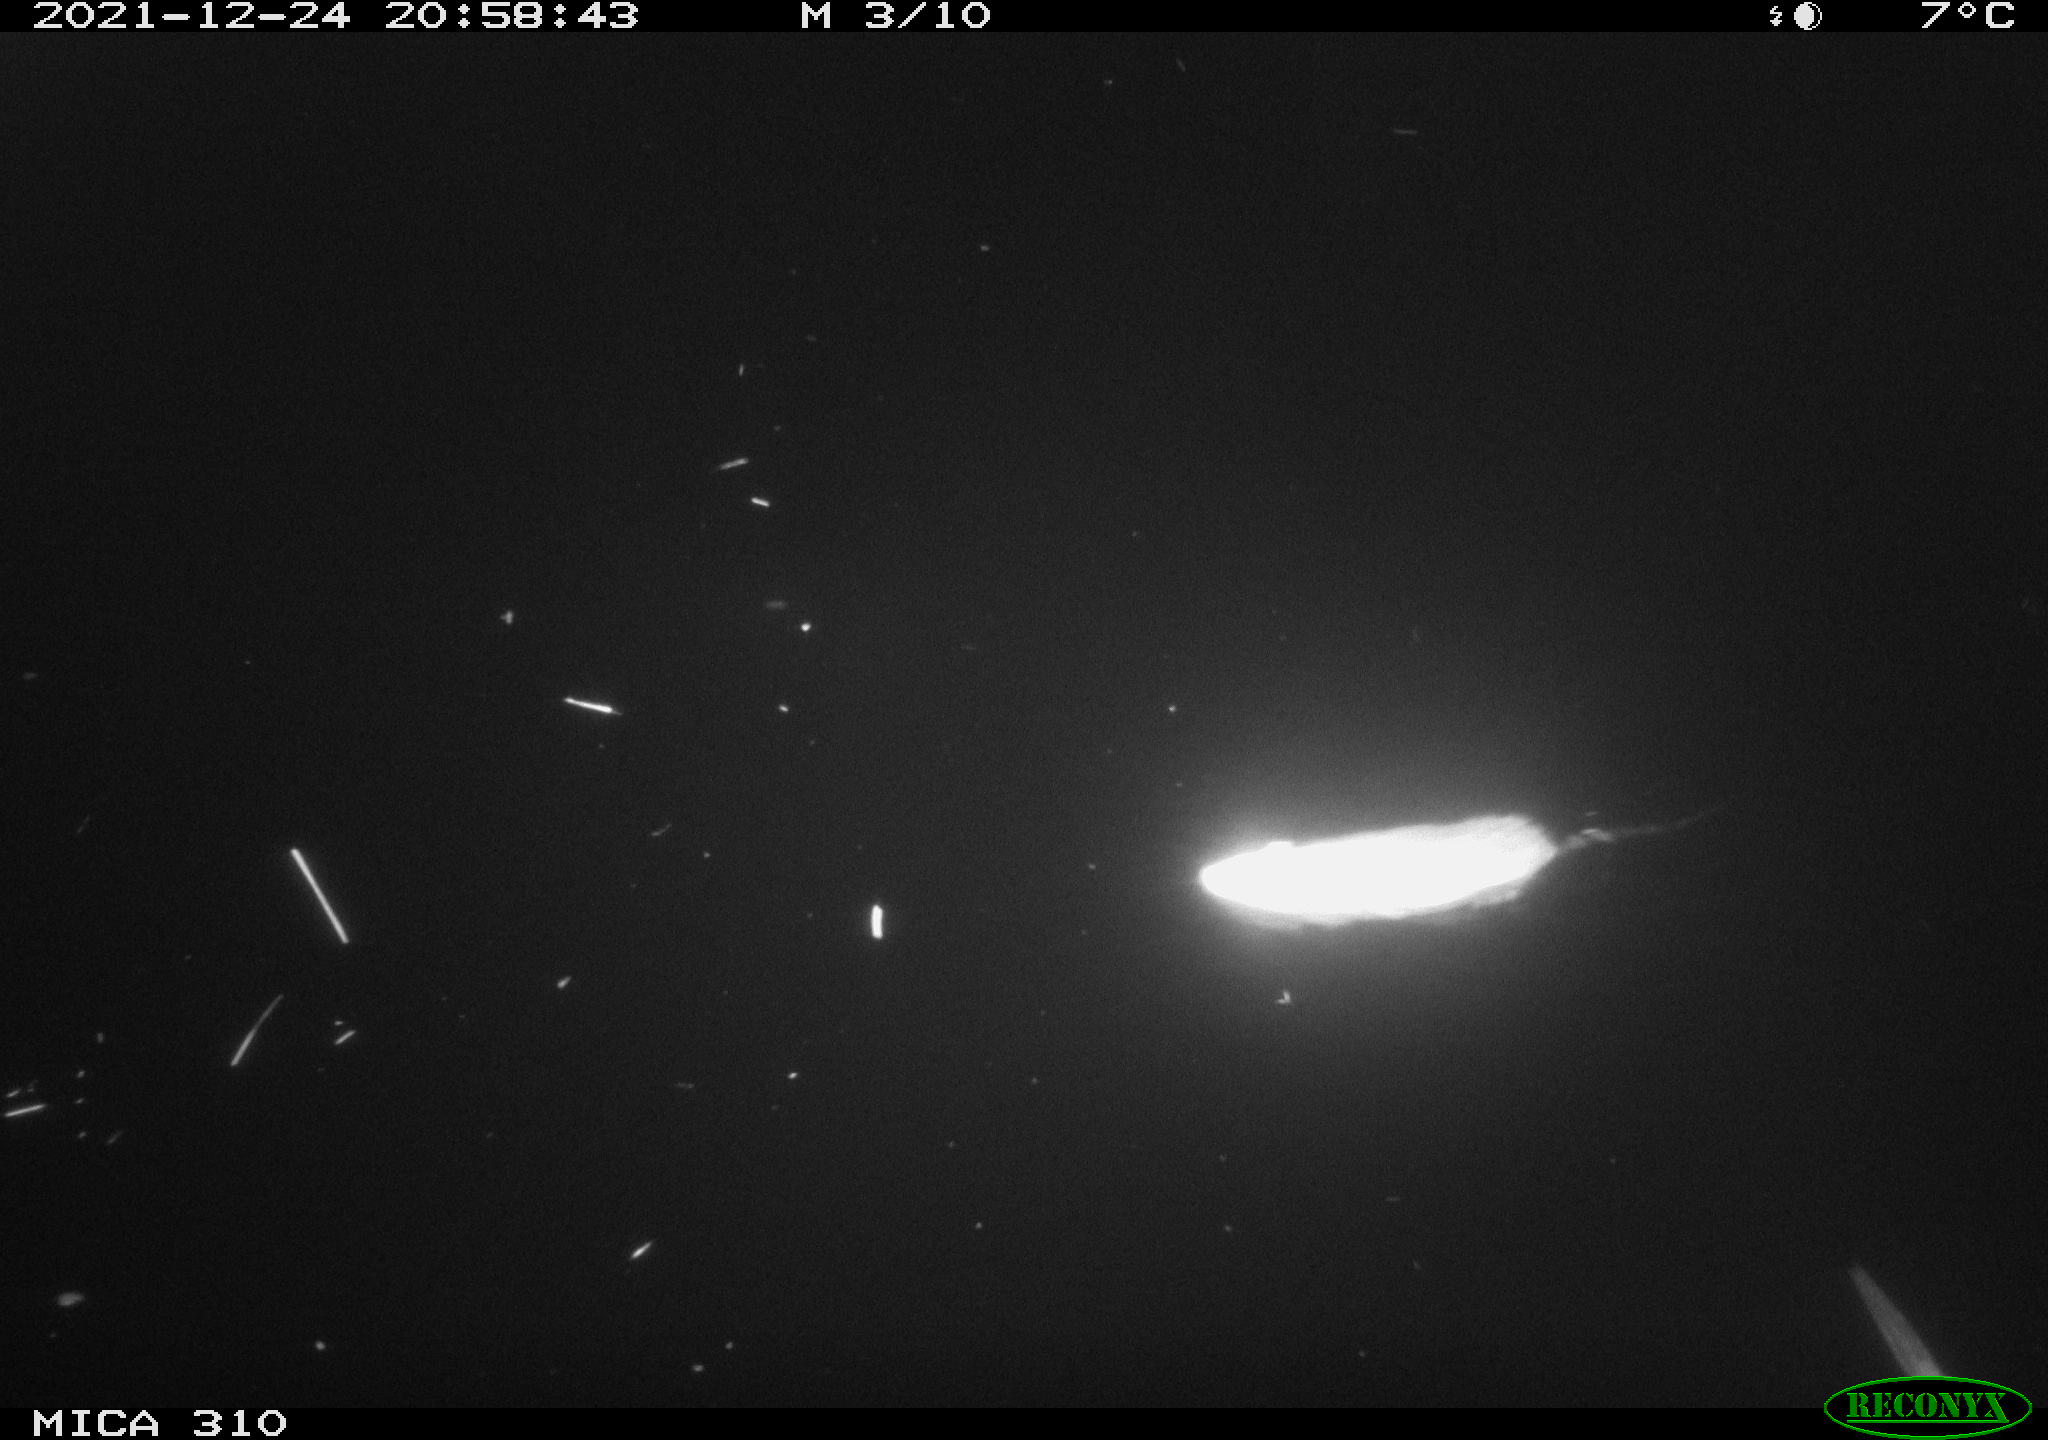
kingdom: Animalia
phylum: Chordata
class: Mammalia
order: Rodentia
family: Muridae
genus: Rattus
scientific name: Rattus norvegicus
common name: Brown rat
